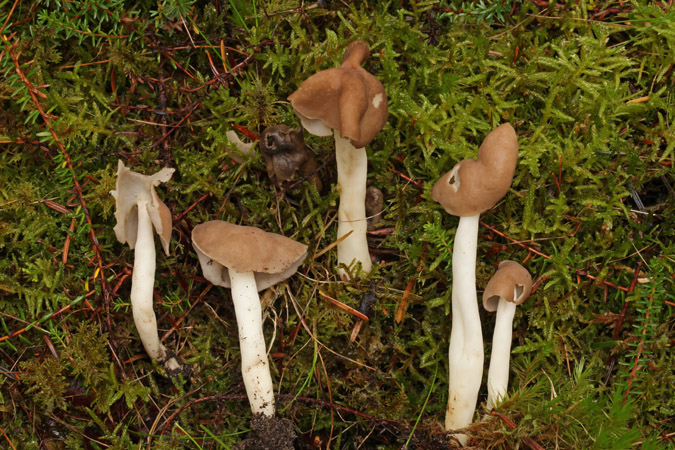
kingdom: Fungi
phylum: Ascomycota
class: Pezizomycetes
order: Pezizales
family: Helvellaceae
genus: Helvella
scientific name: Helvella
